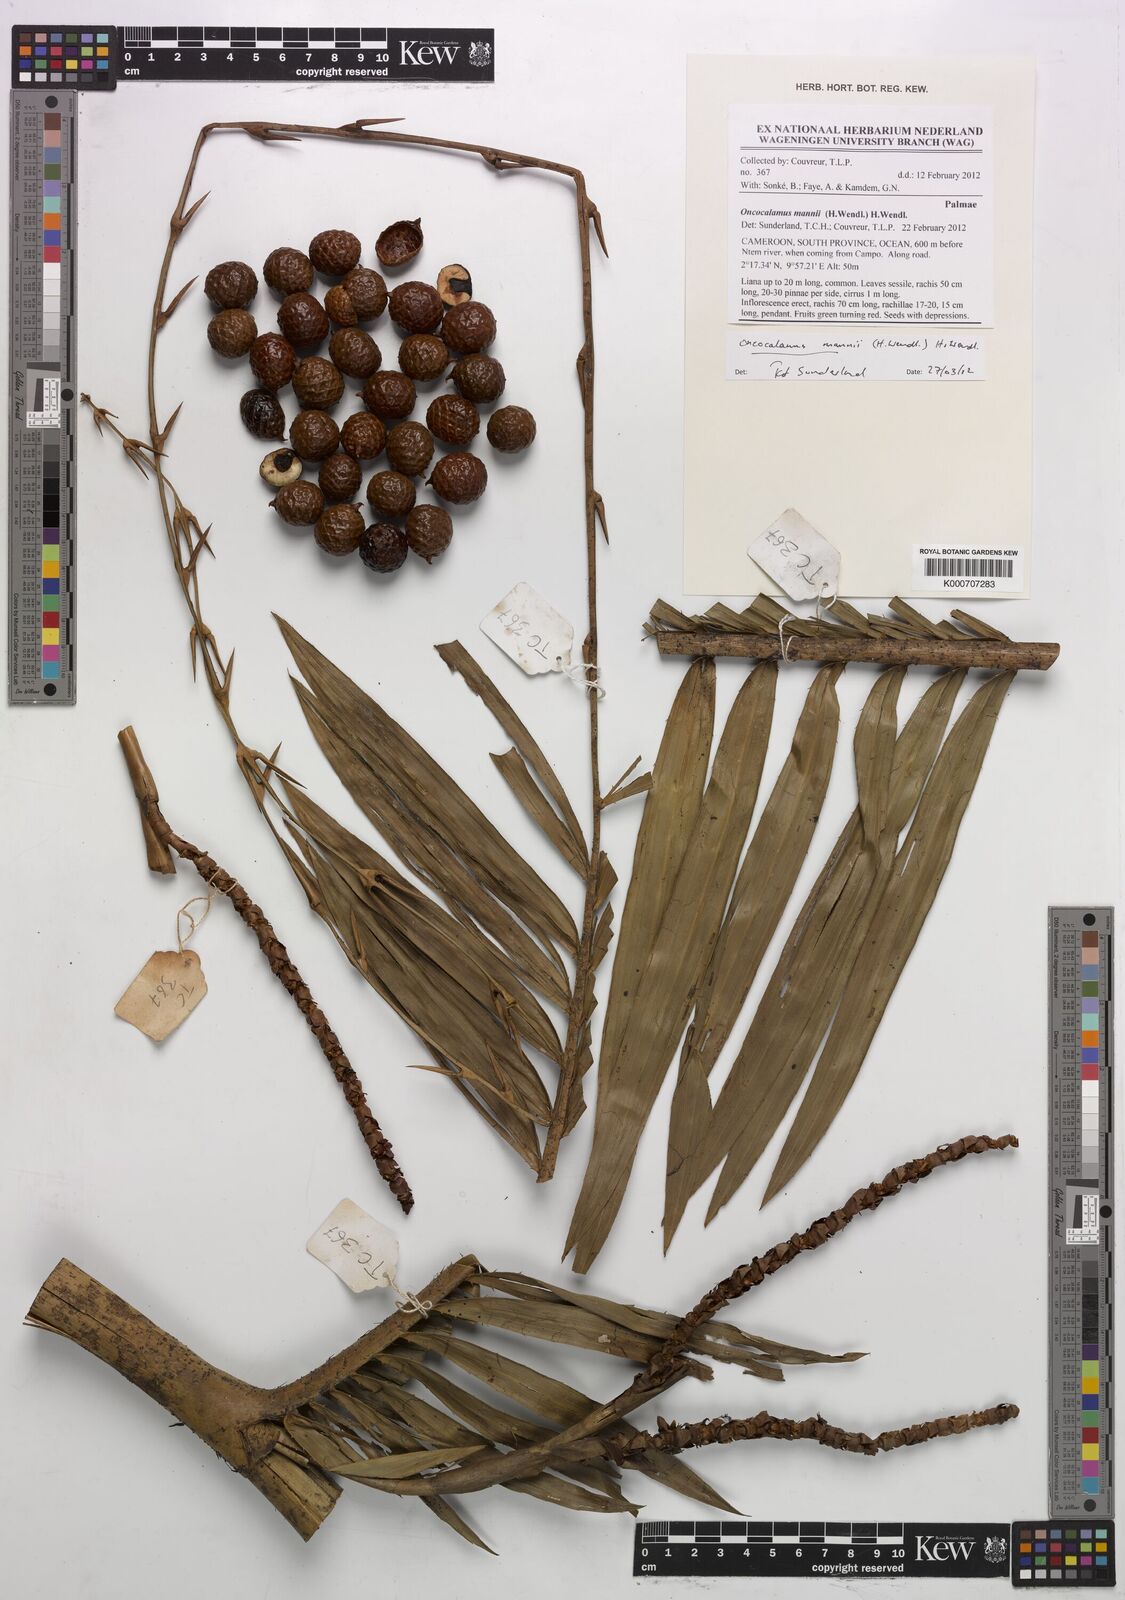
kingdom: Plantae
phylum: Tracheophyta
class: Liliopsida
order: Arecales
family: Arecaceae
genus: Oncocalamus
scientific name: Oncocalamus mannii
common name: Rattan
